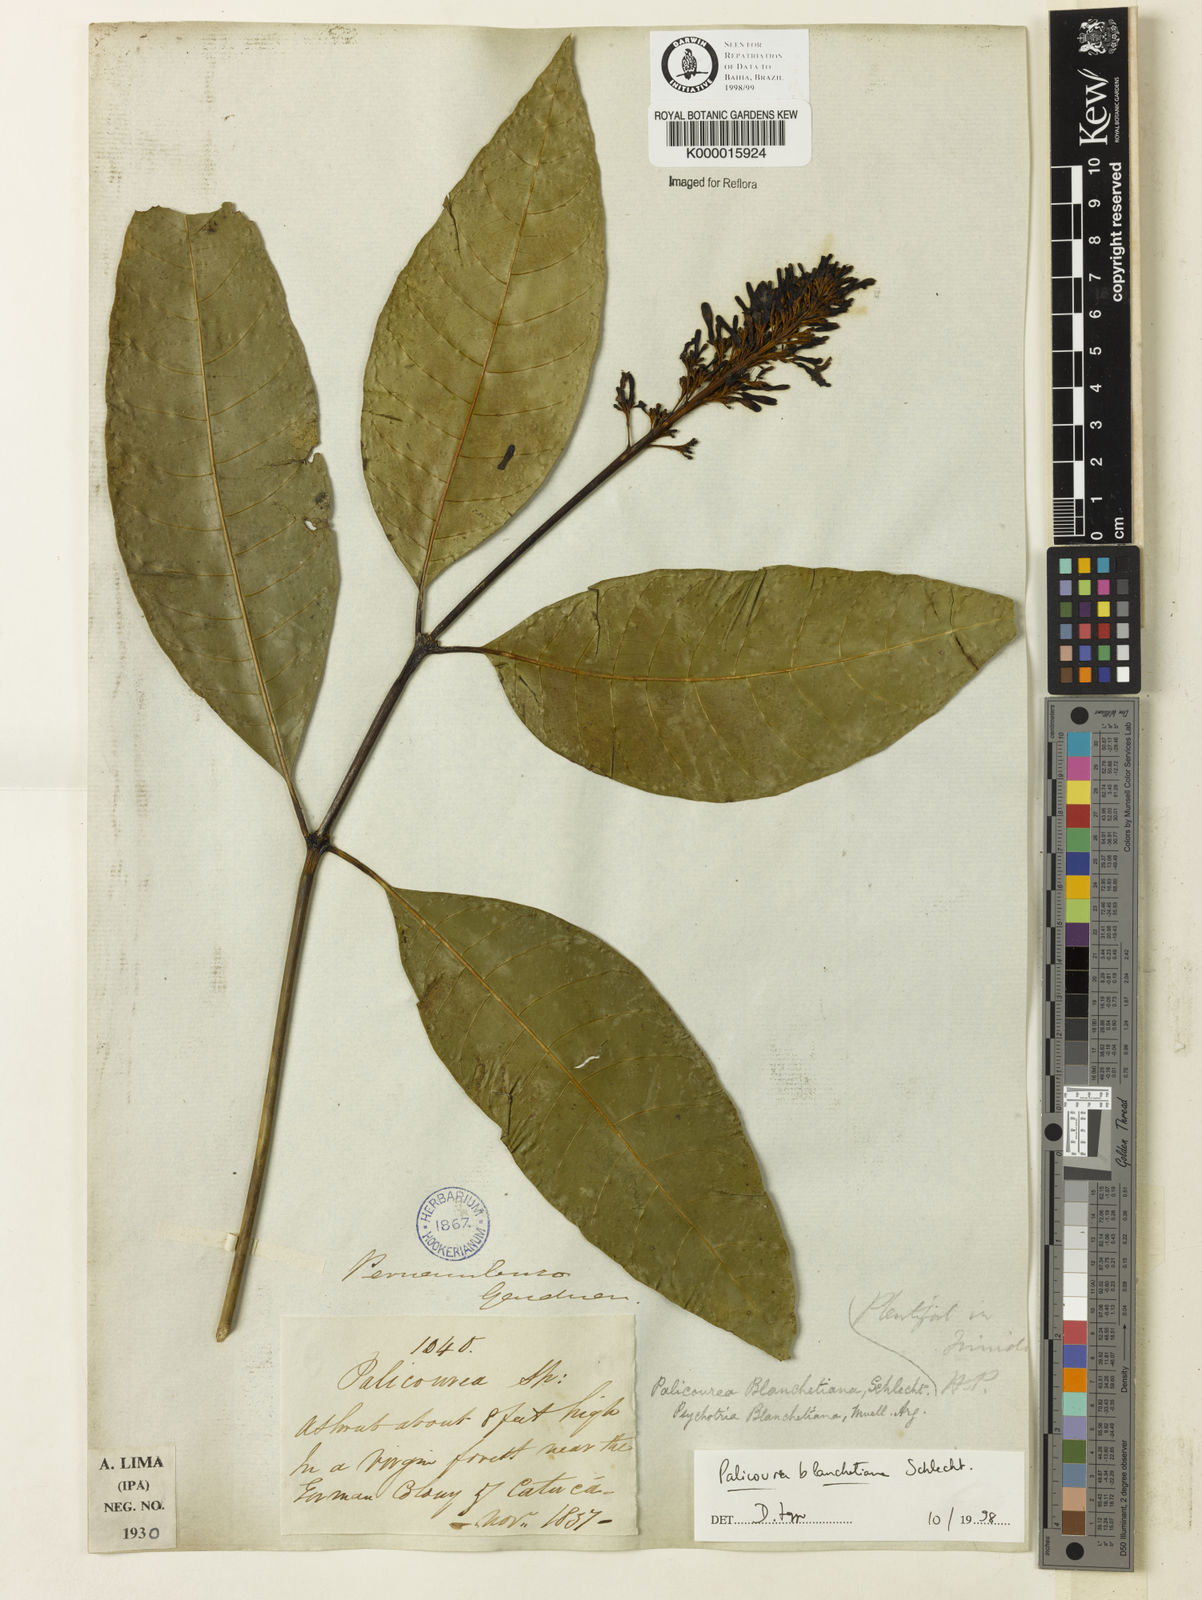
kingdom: Plantae
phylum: Tracheophyta
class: Magnoliopsida
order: Gentianales
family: Rubiaceae
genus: Palicourea
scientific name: Palicourea blanchetiana
